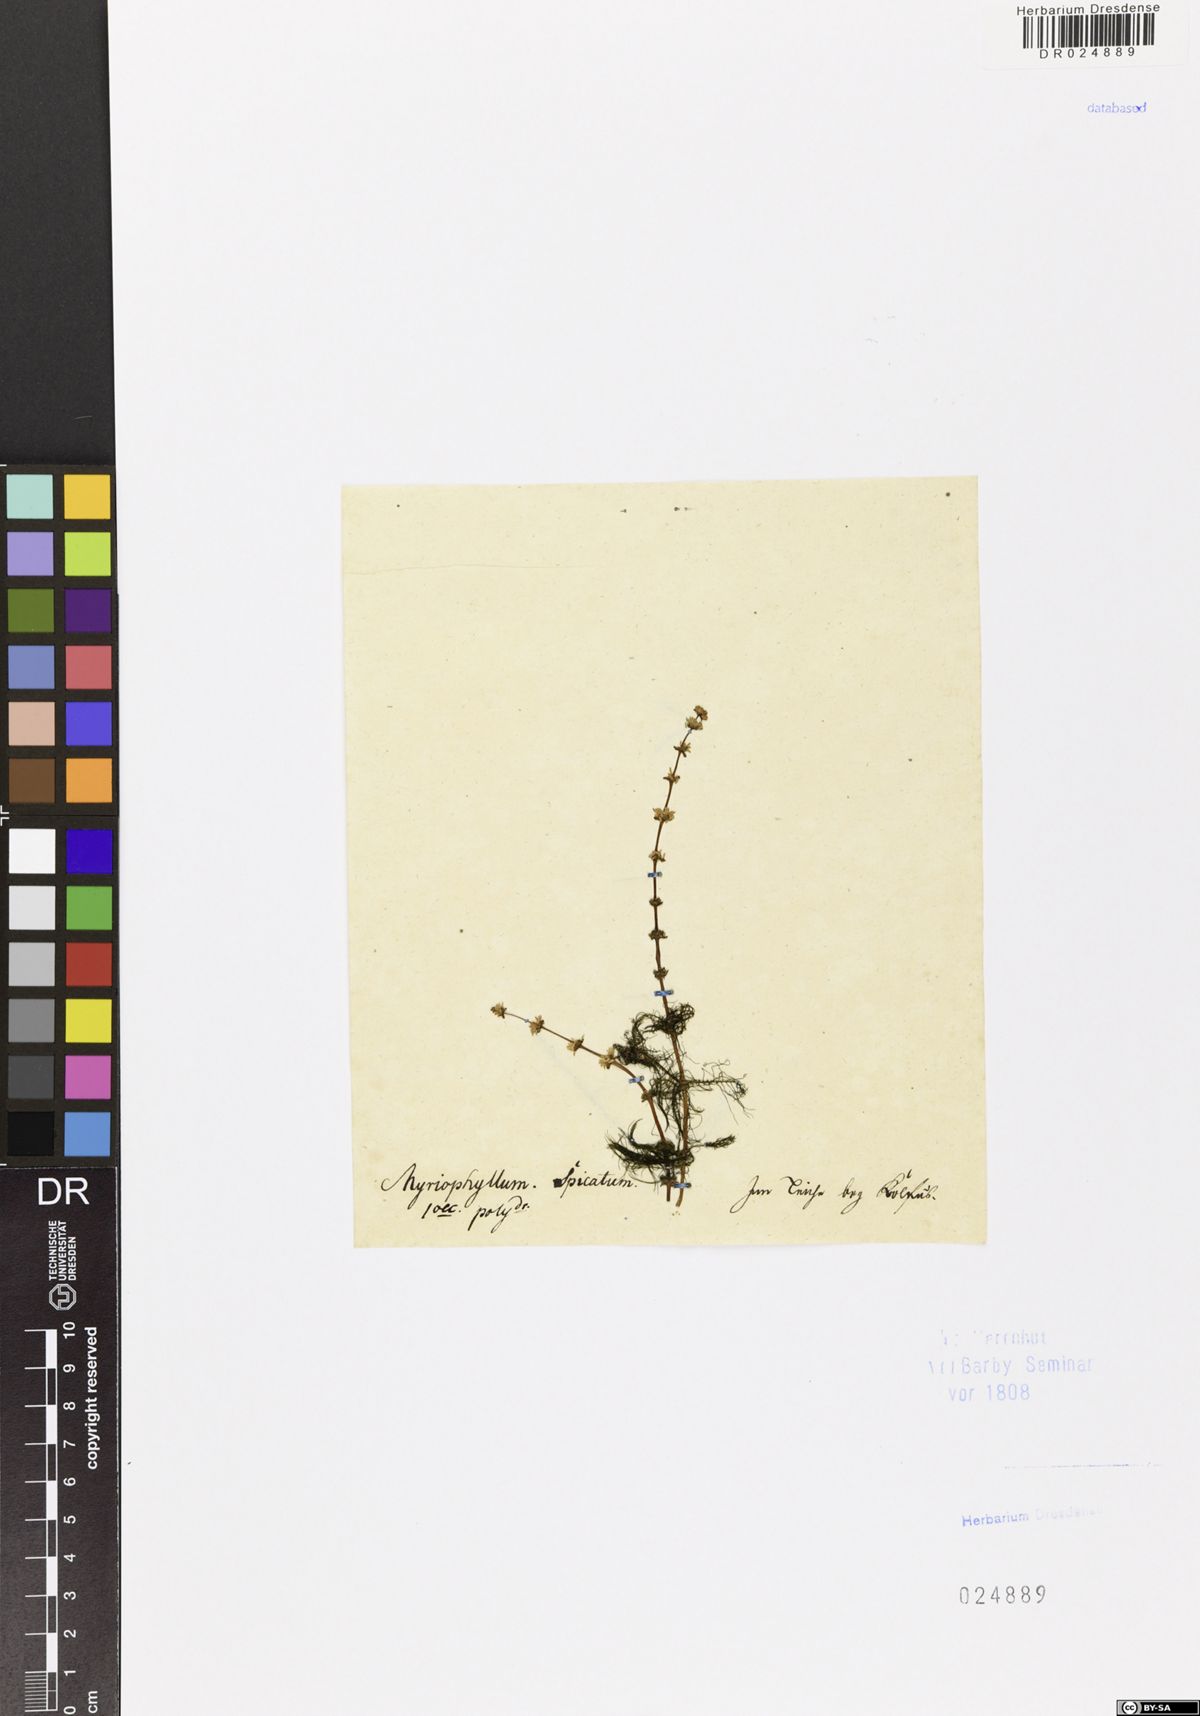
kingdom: Plantae
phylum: Tracheophyta
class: Magnoliopsida
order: Saxifragales
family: Haloragaceae
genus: Myriophyllum
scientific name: Myriophyllum spicatum
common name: Spiked water-milfoil
